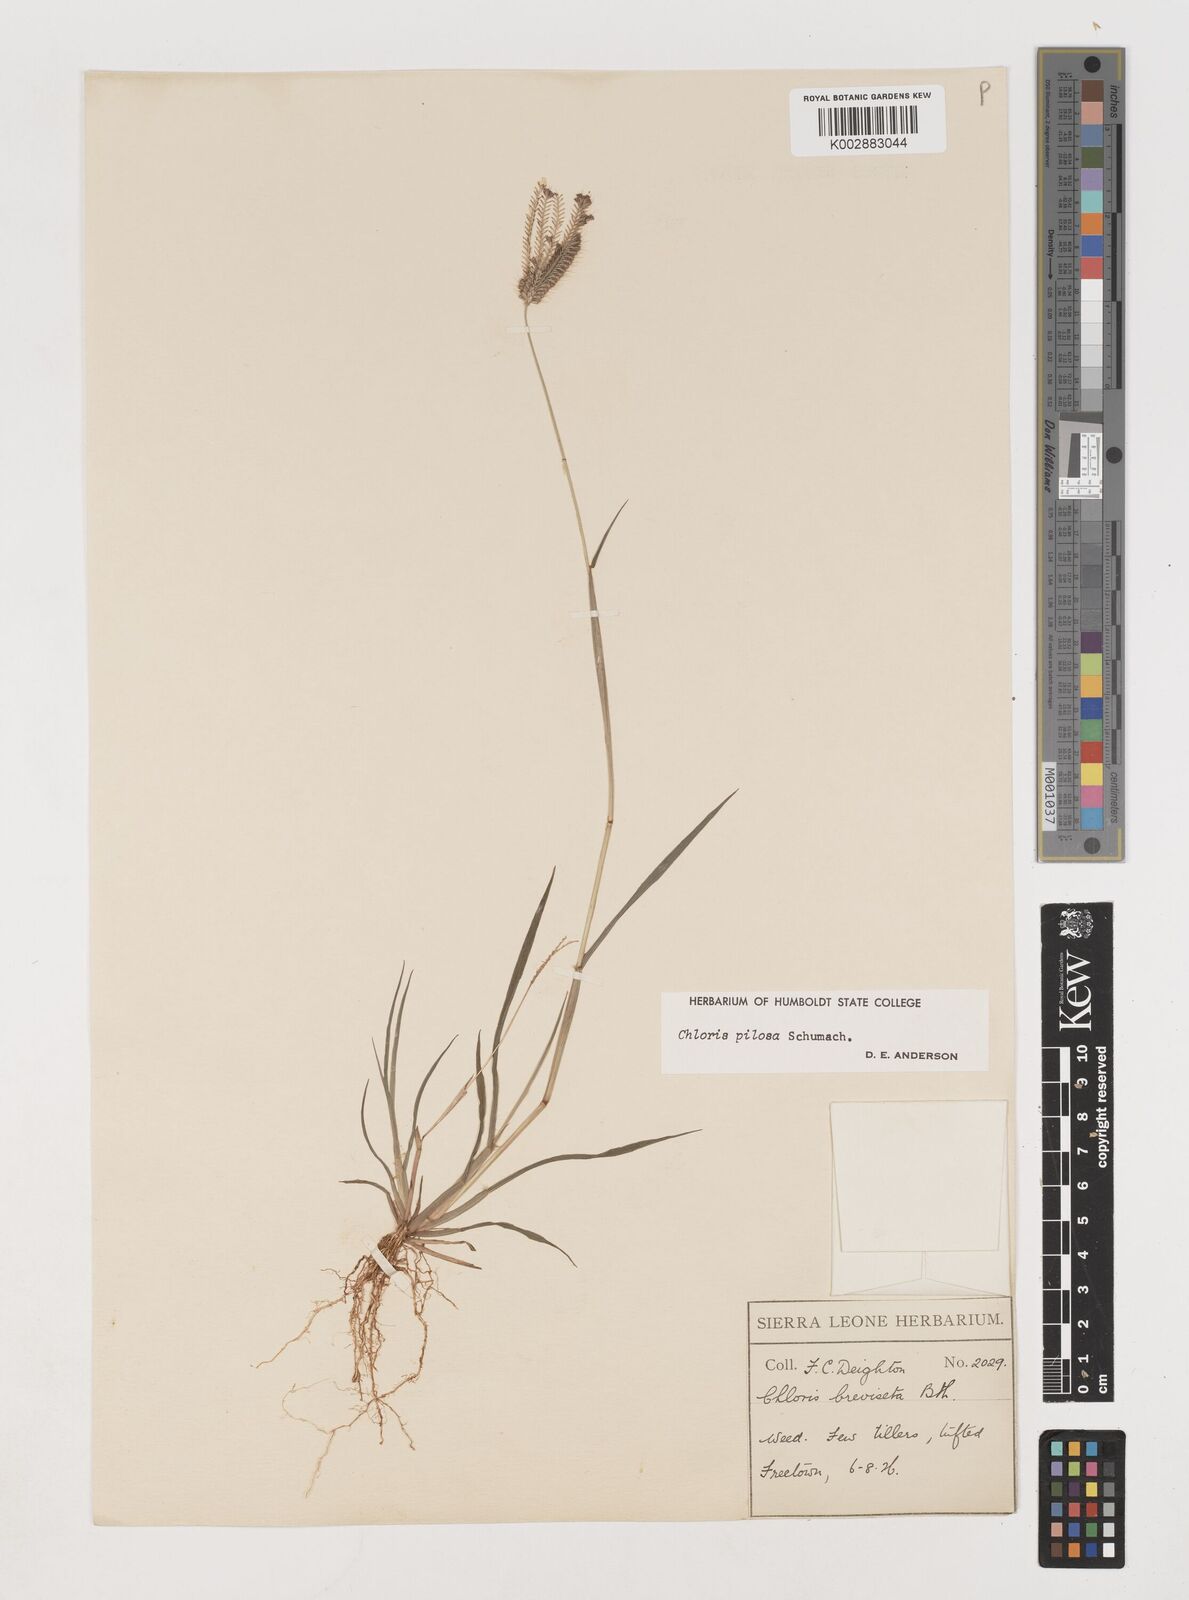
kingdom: Plantae
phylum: Tracheophyta
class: Liliopsida
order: Poales
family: Poaceae
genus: Chloris
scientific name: Chloris pilosa
